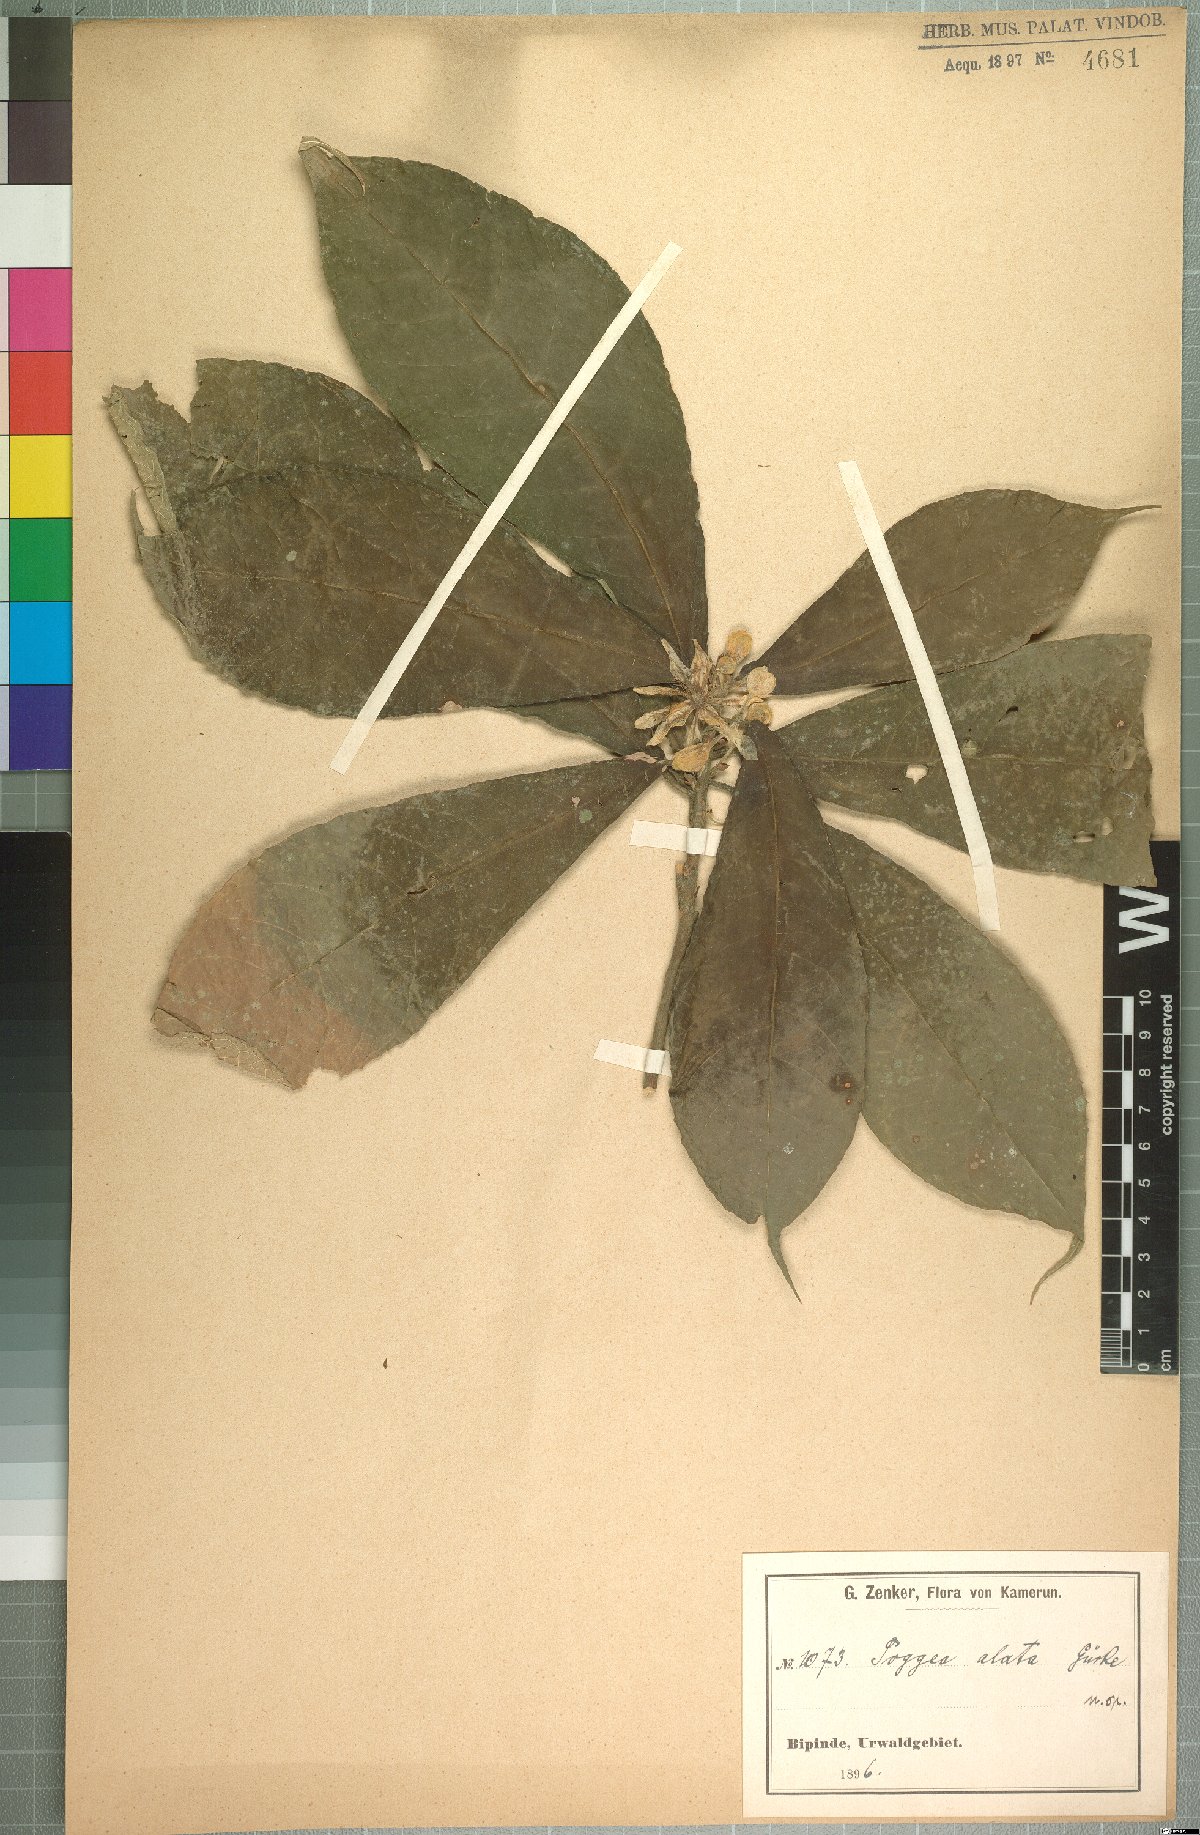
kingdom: Plantae
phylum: Tracheophyta
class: Magnoliopsida
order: Malpighiales
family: Achariaceae
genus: Poggea
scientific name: Poggea alata
